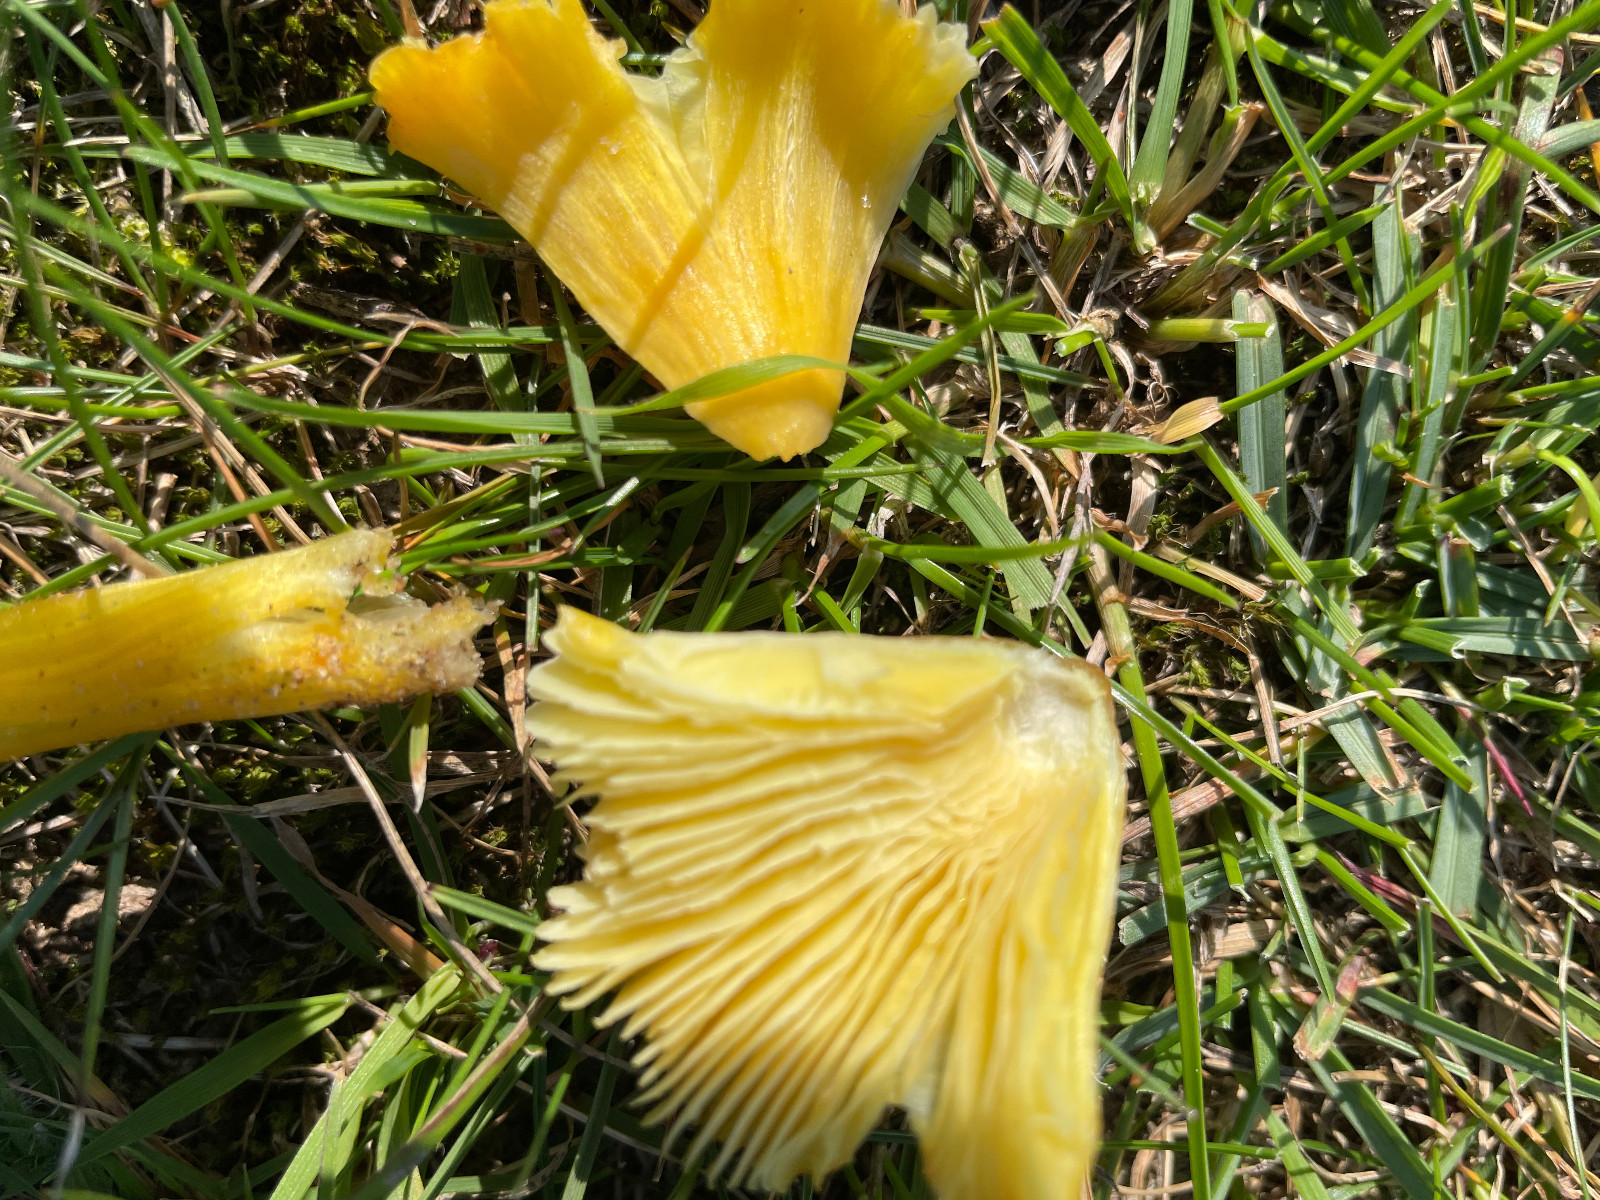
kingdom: Fungi
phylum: Basidiomycota
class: Agaricomycetes
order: Agaricales
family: Hygrophoraceae
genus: Hygrocybe
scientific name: Hygrocybe
